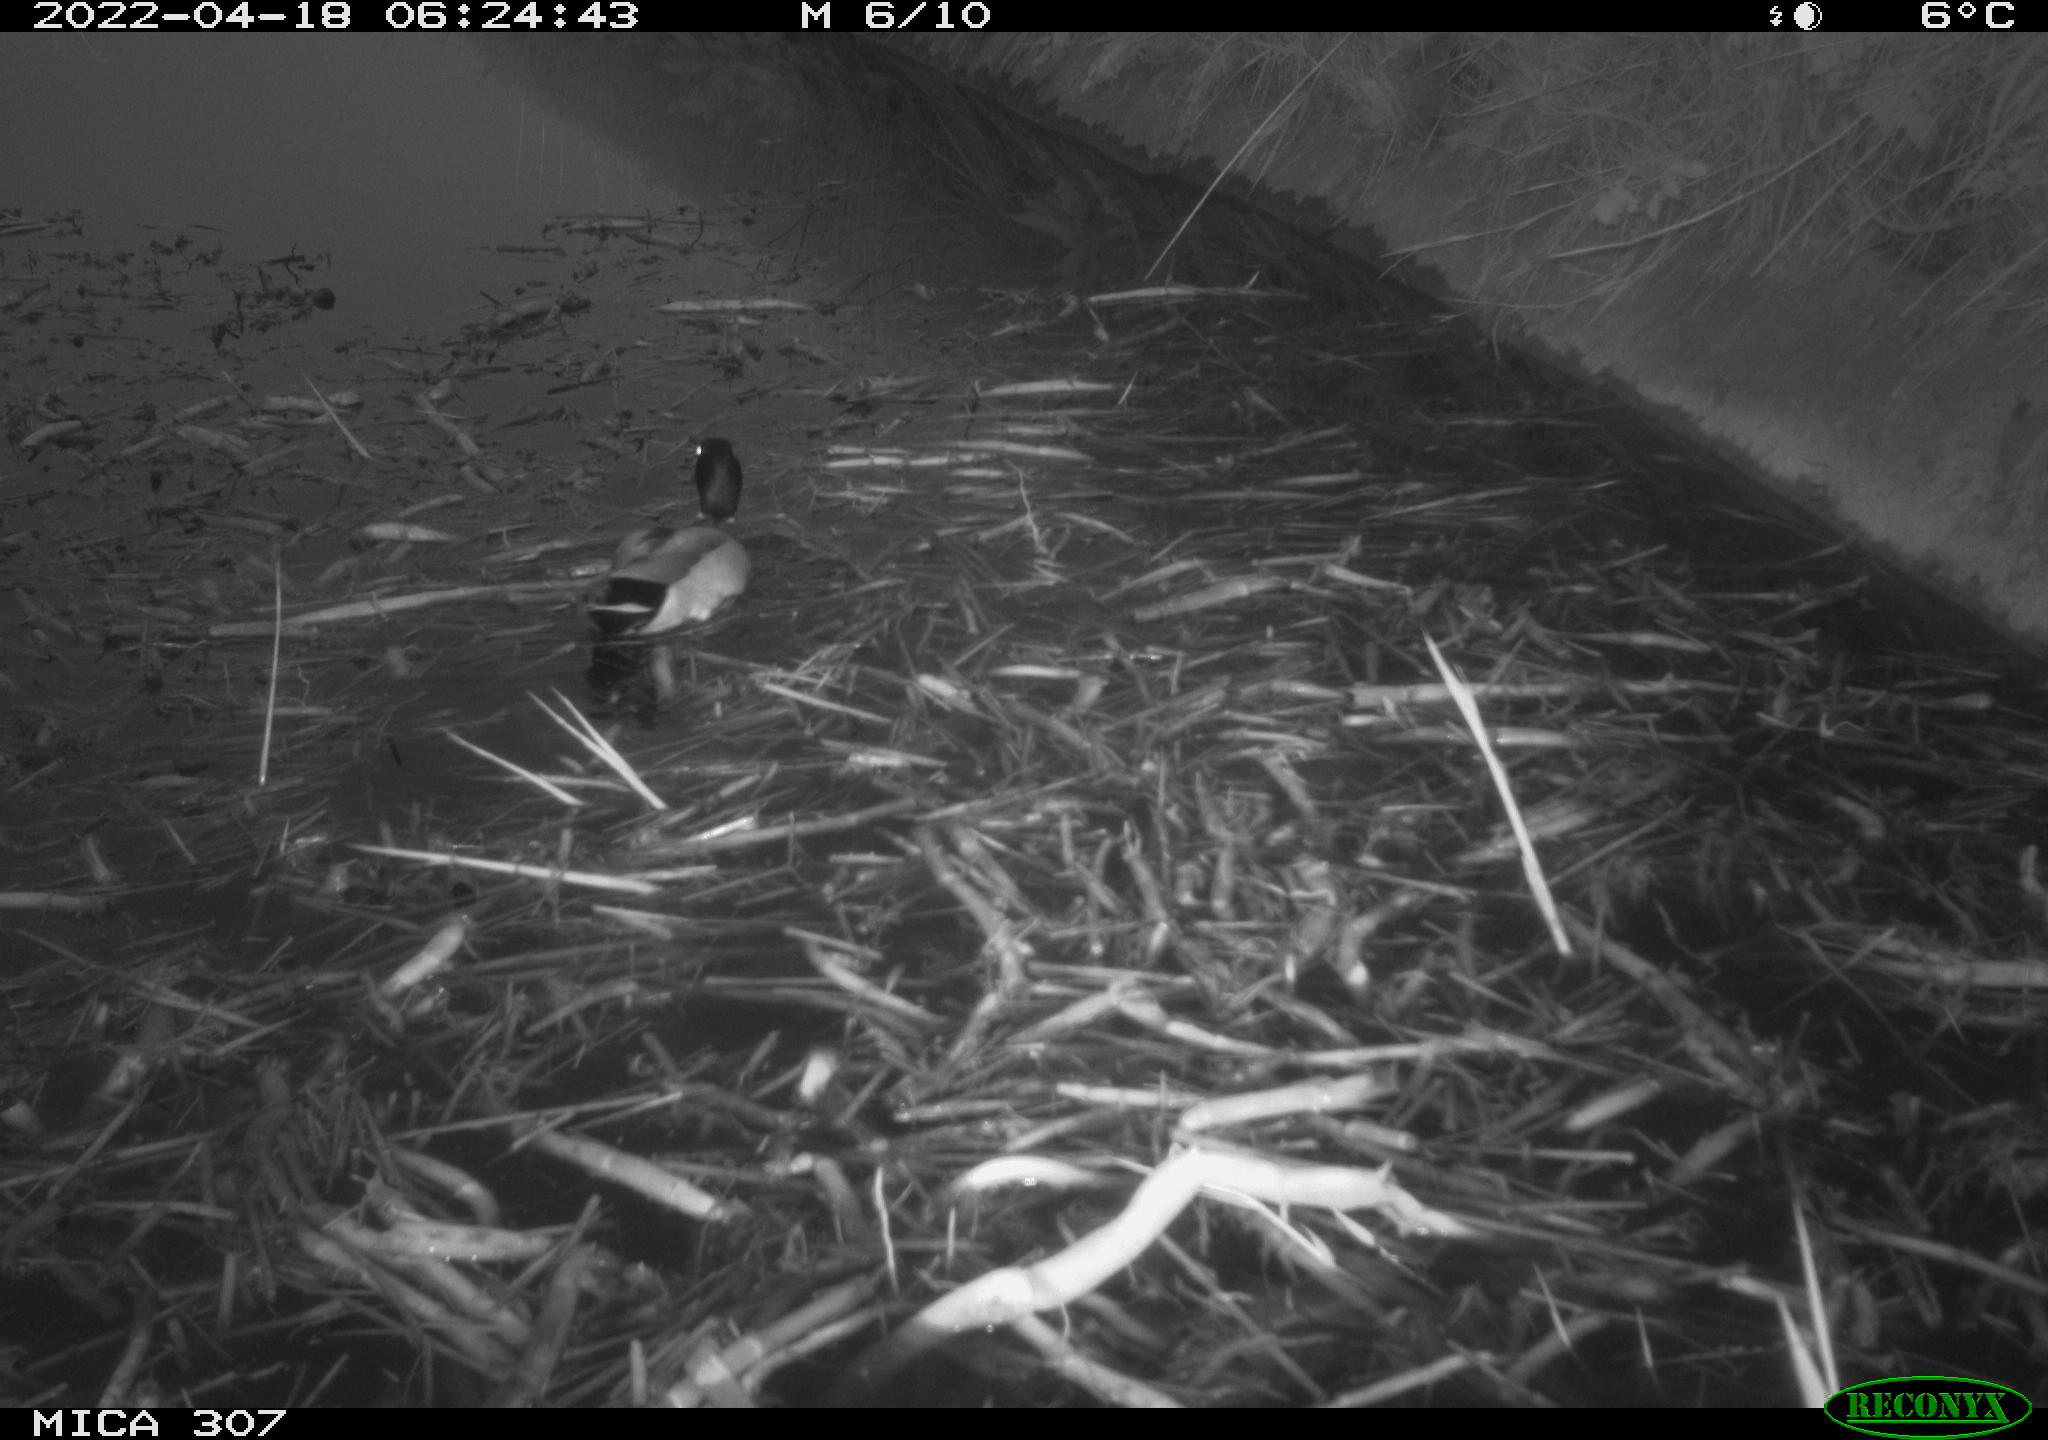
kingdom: Animalia
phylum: Chordata
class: Aves
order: Anseriformes
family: Anatidae
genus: Anas
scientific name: Anas platyrhynchos
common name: Mallard
